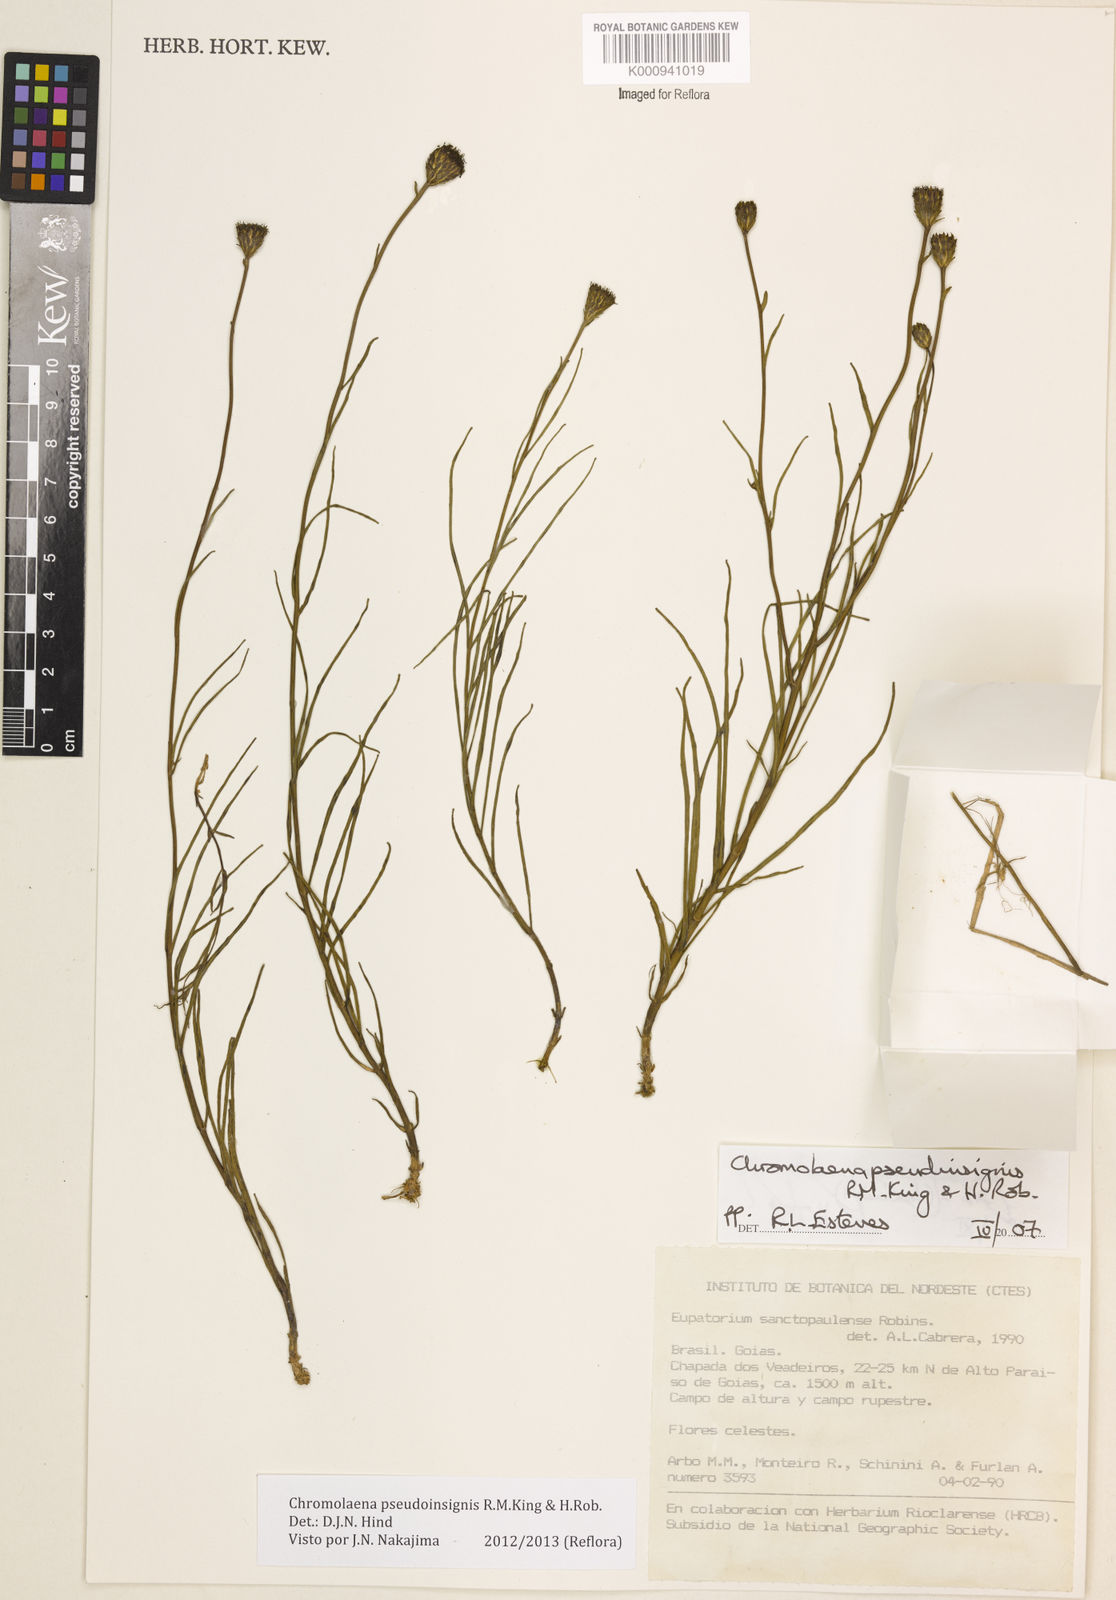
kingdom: Plantae
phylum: Tracheophyta
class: Magnoliopsida
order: Asterales
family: Asteraceae
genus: Chromolaena
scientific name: Chromolaena
